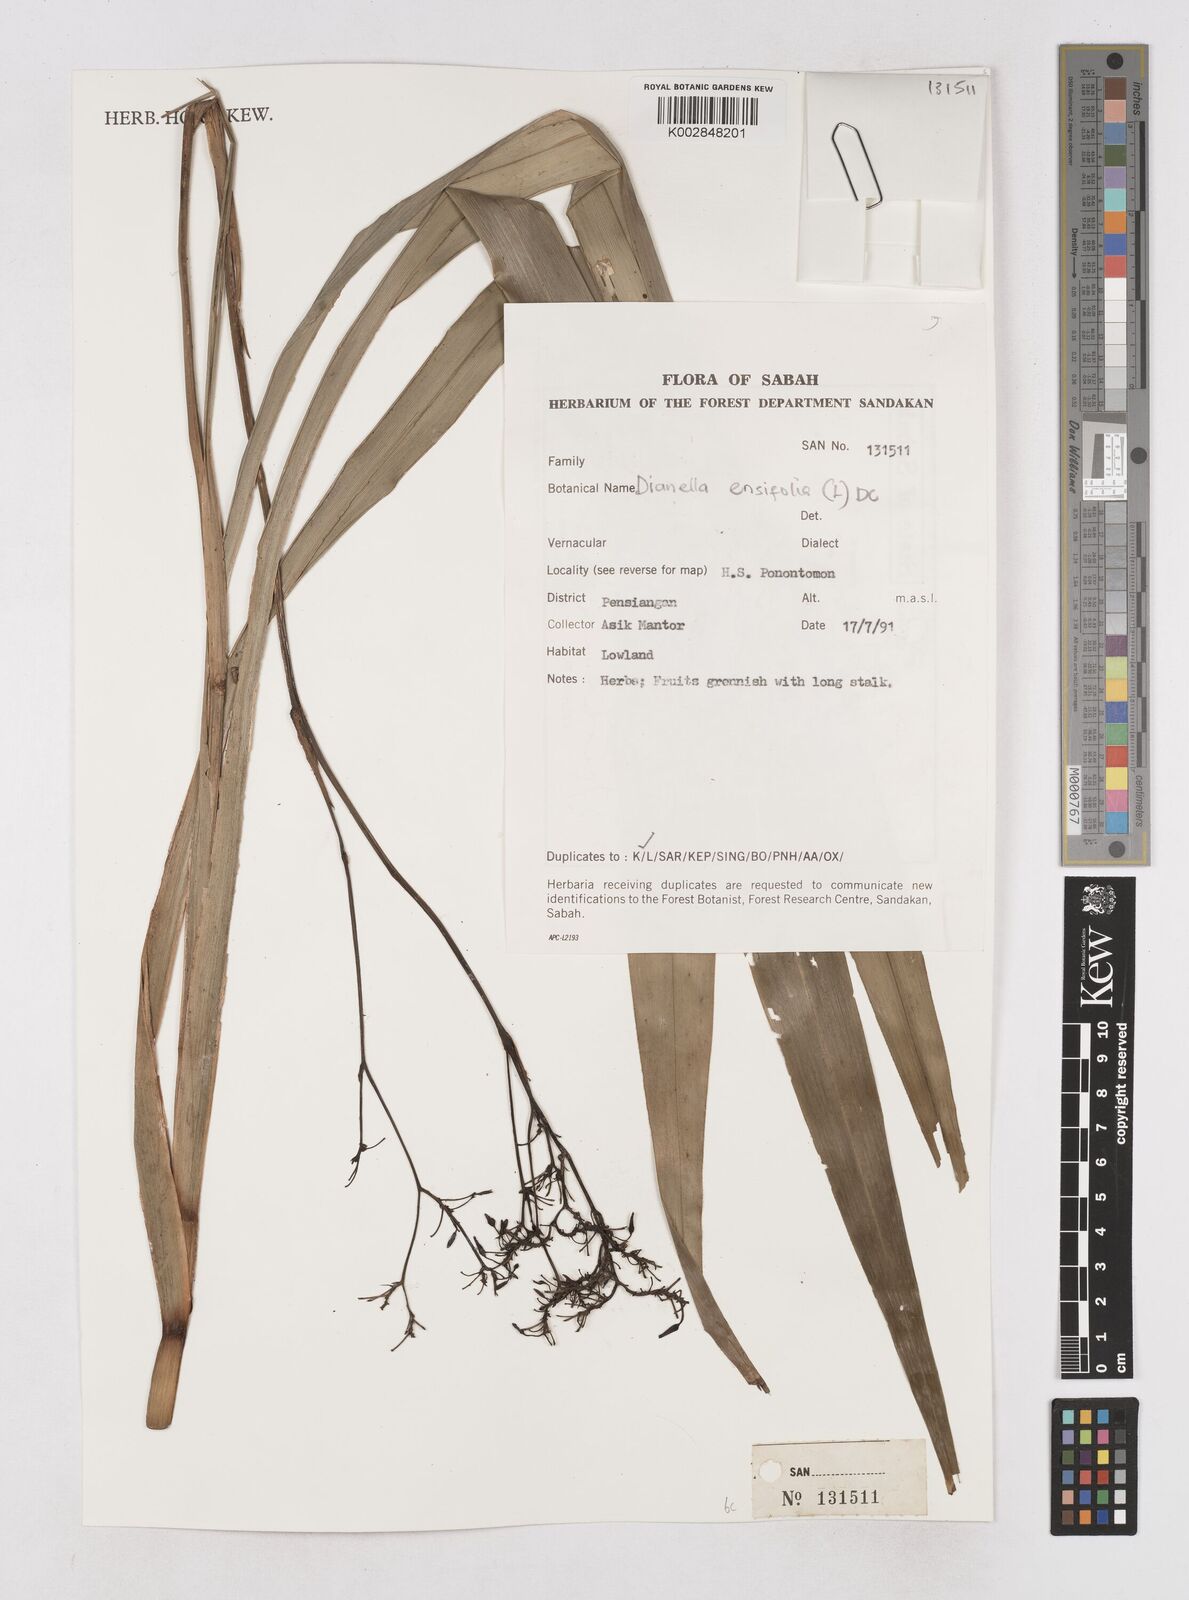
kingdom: Plantae
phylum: Tracheophyta
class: Liliopsida
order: Asparagales
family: Asphodelaceae
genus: Dianella
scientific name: Dianella ensifolia
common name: New zealand lilyplant
